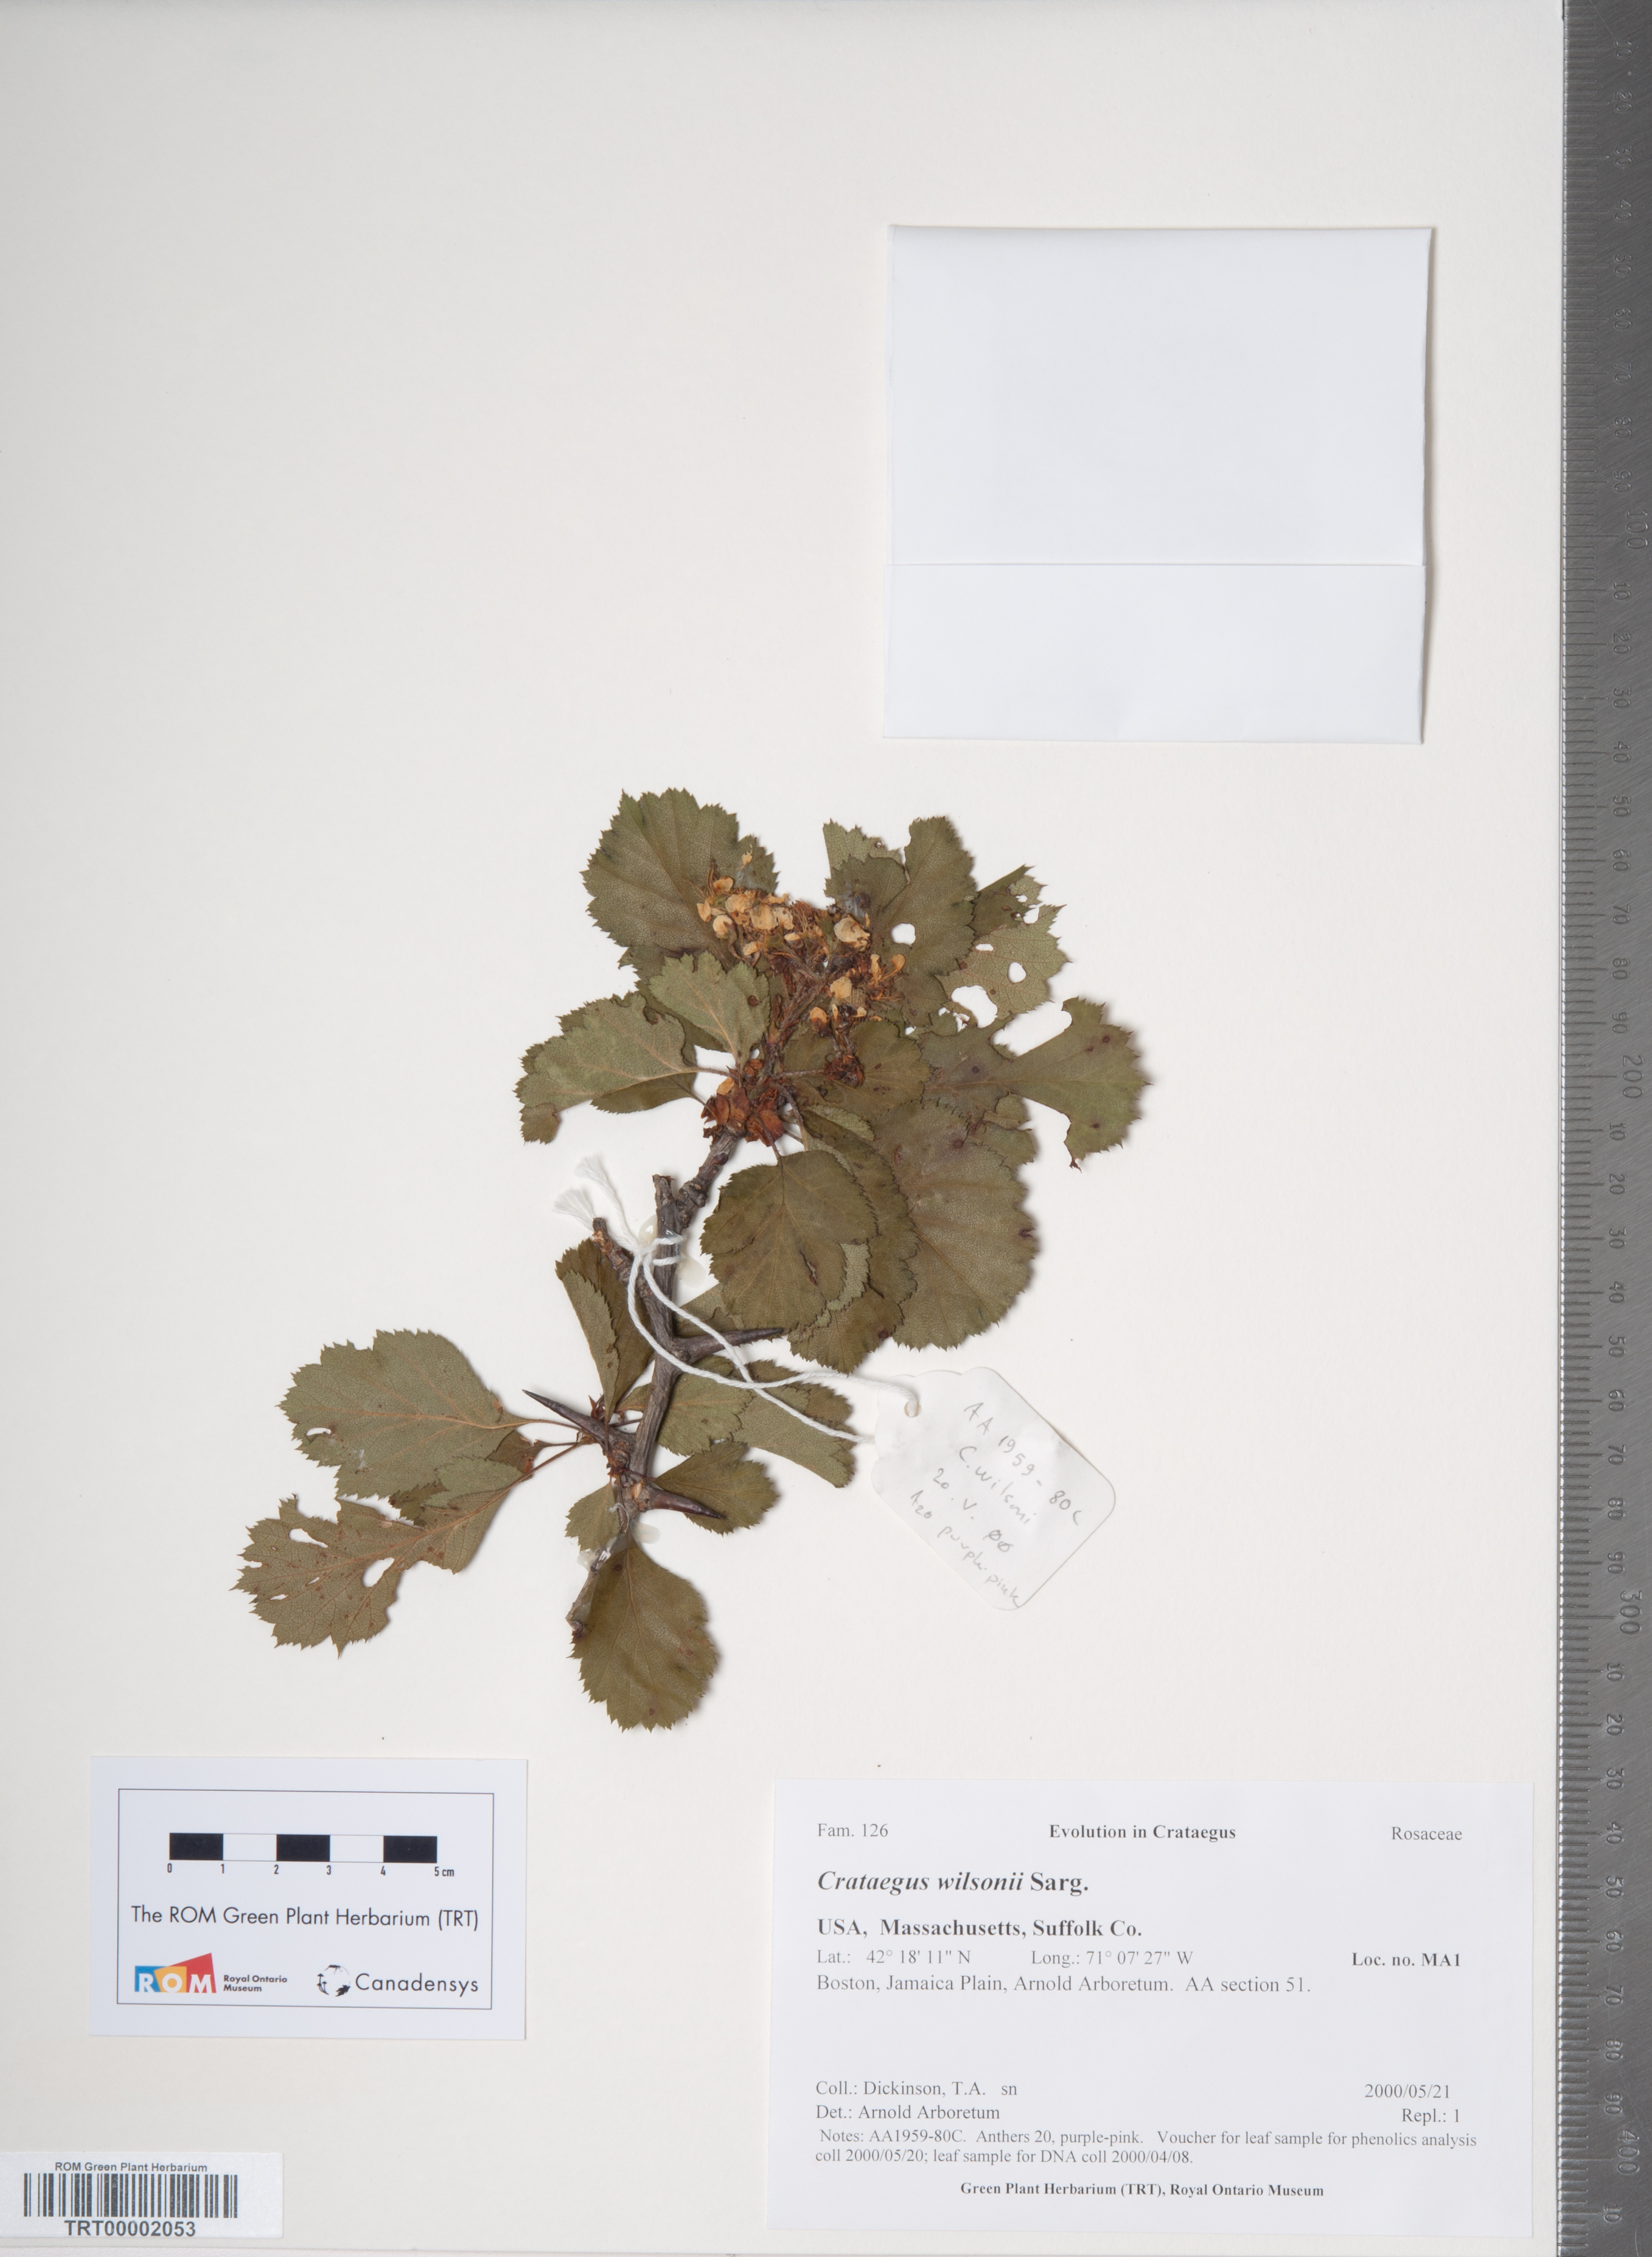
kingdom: Plantae
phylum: Tracheophyta
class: Magnoliopsida
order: Rosales
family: Rosaceae
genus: Crataegus
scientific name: Crataegus wilsonii
